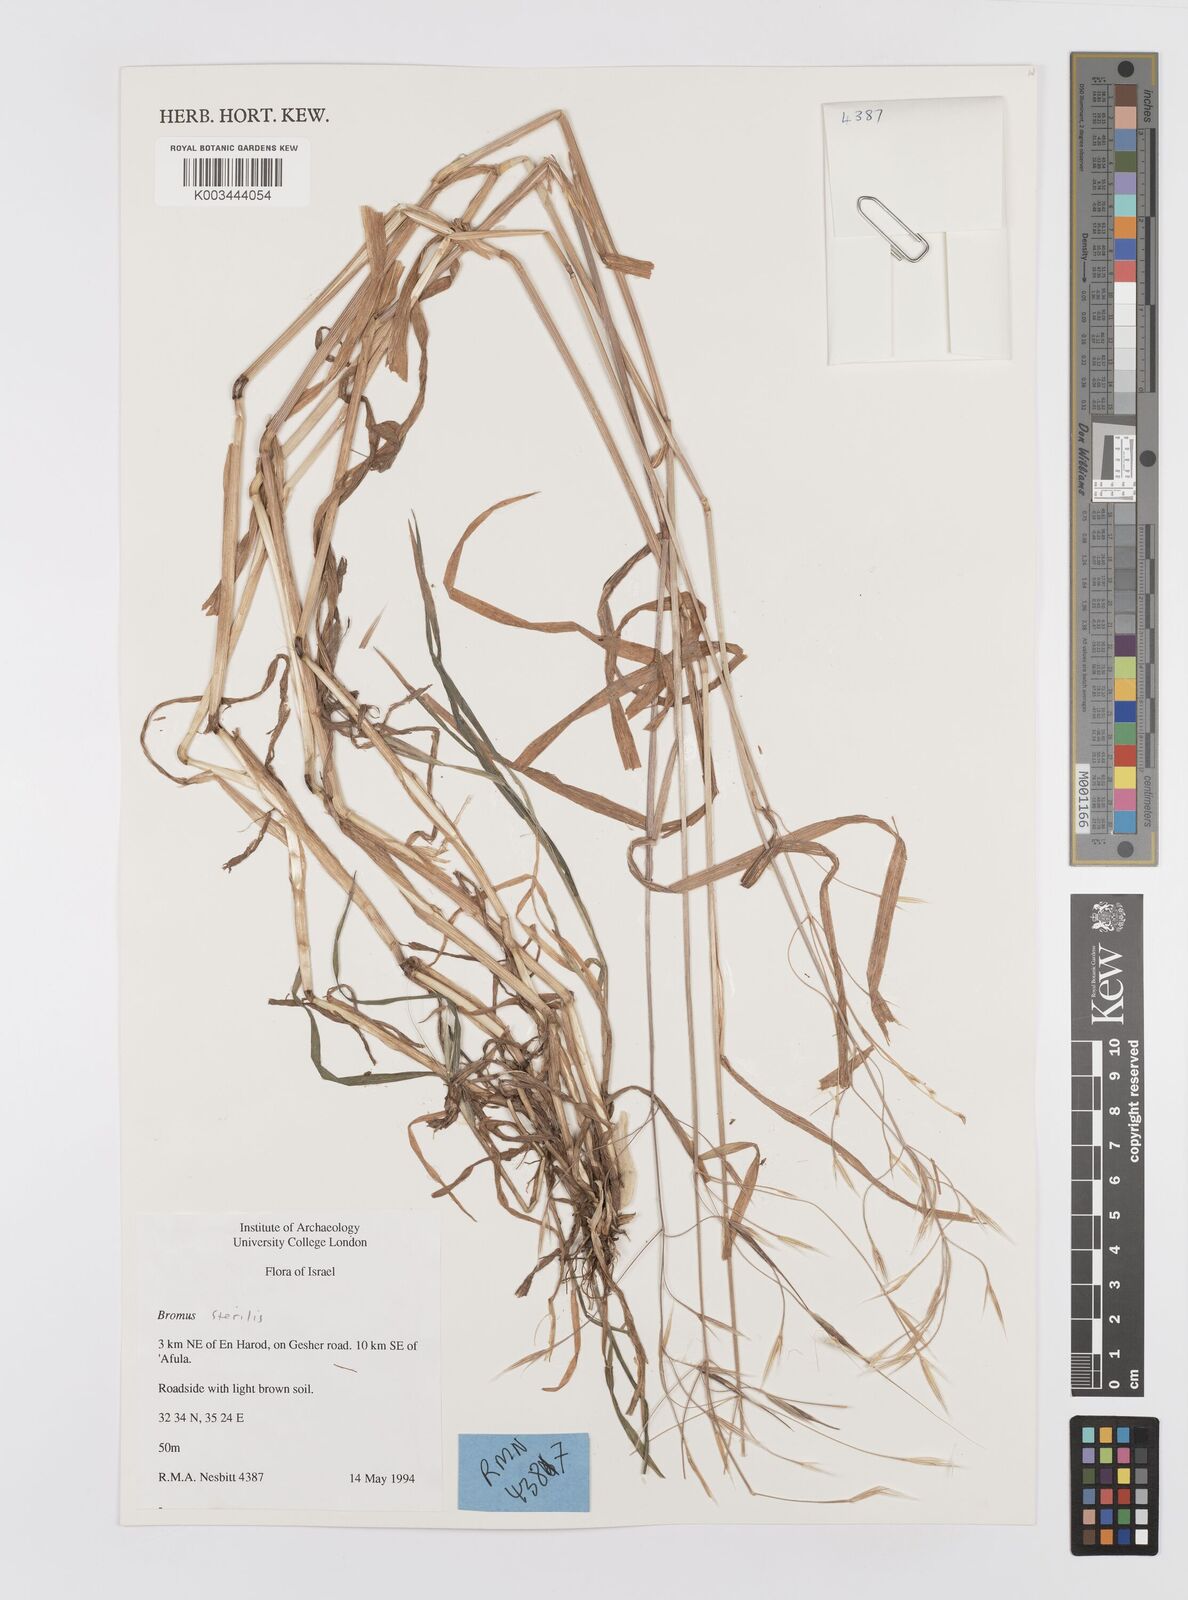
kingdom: Plantae
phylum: Tracheophyta
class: Liliopsida
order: Poales
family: Poaceae
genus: Bromus
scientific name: Bromus sterilis
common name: Poverty brome
